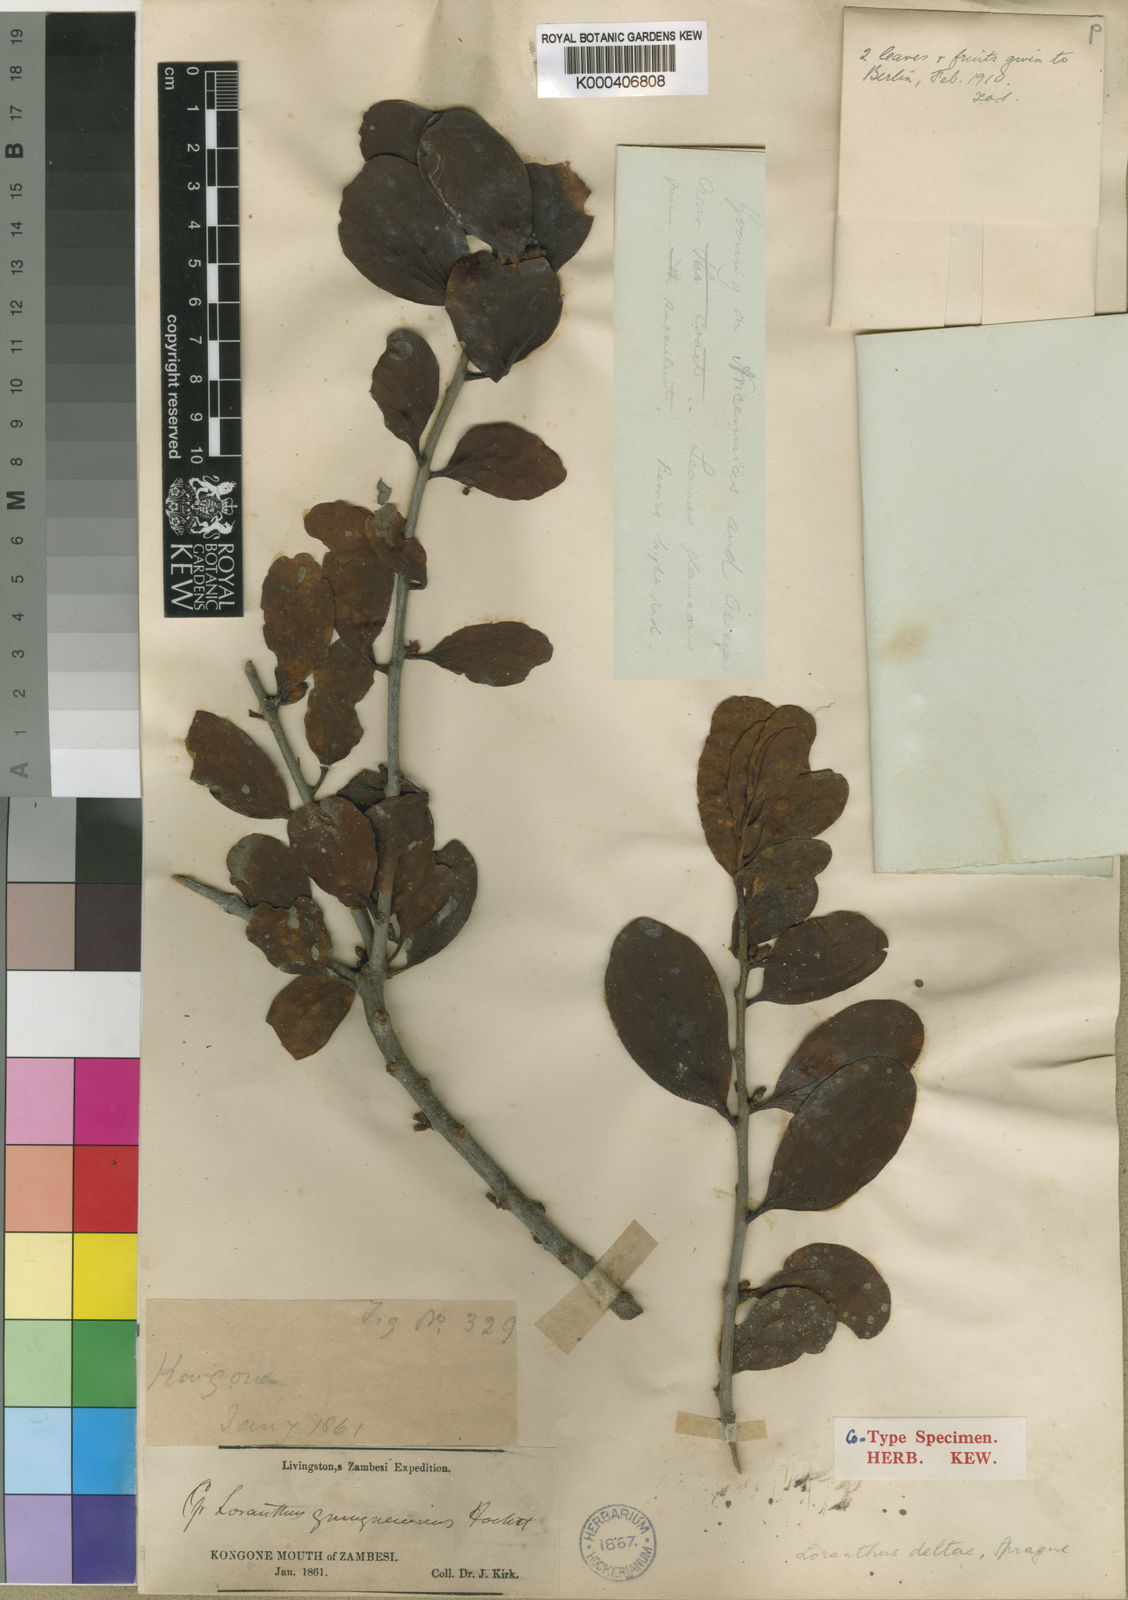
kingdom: Plantae
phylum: Tracheophyta
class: Magnoliopsida
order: Santalales
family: Loranthaceae
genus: Agelanthus
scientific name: Agelanthus deltae
